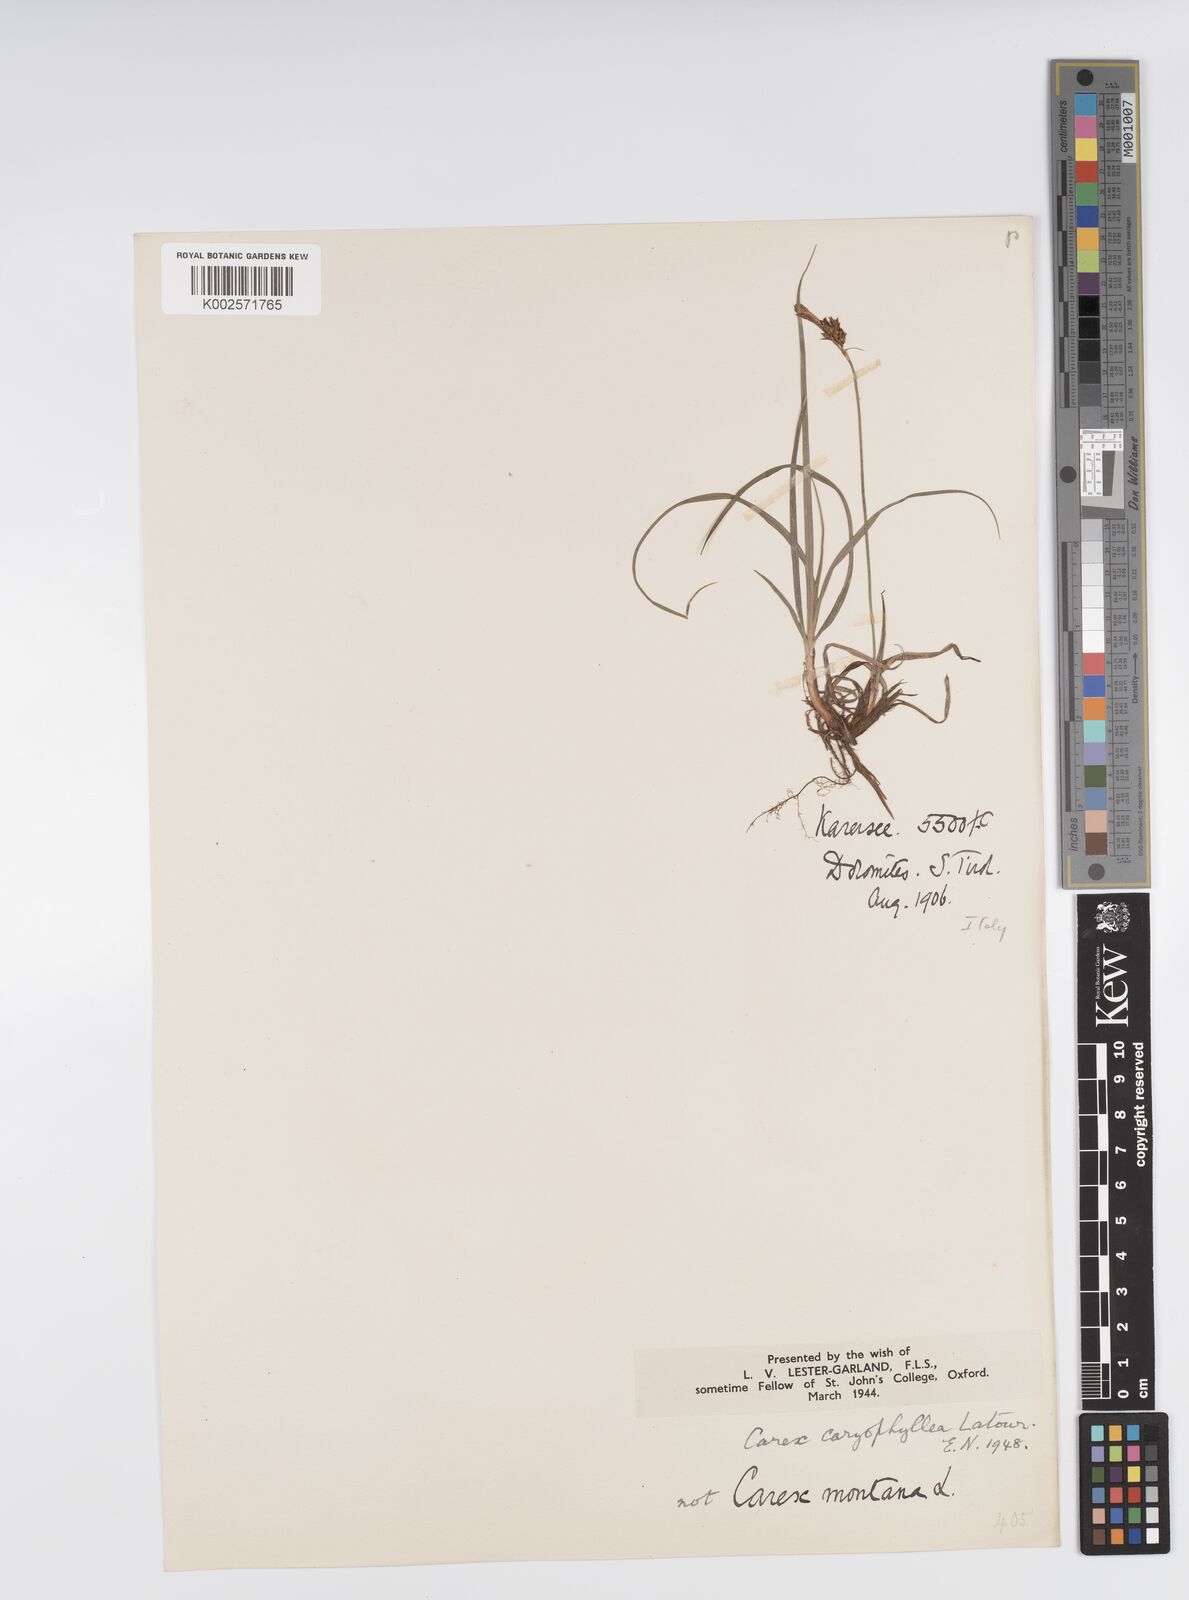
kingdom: Plantae
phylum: Tracheophyta
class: Liliopsida
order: Poales
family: Cyperaceae
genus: Carex
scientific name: Carex caryophyllea
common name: Spring sedge
